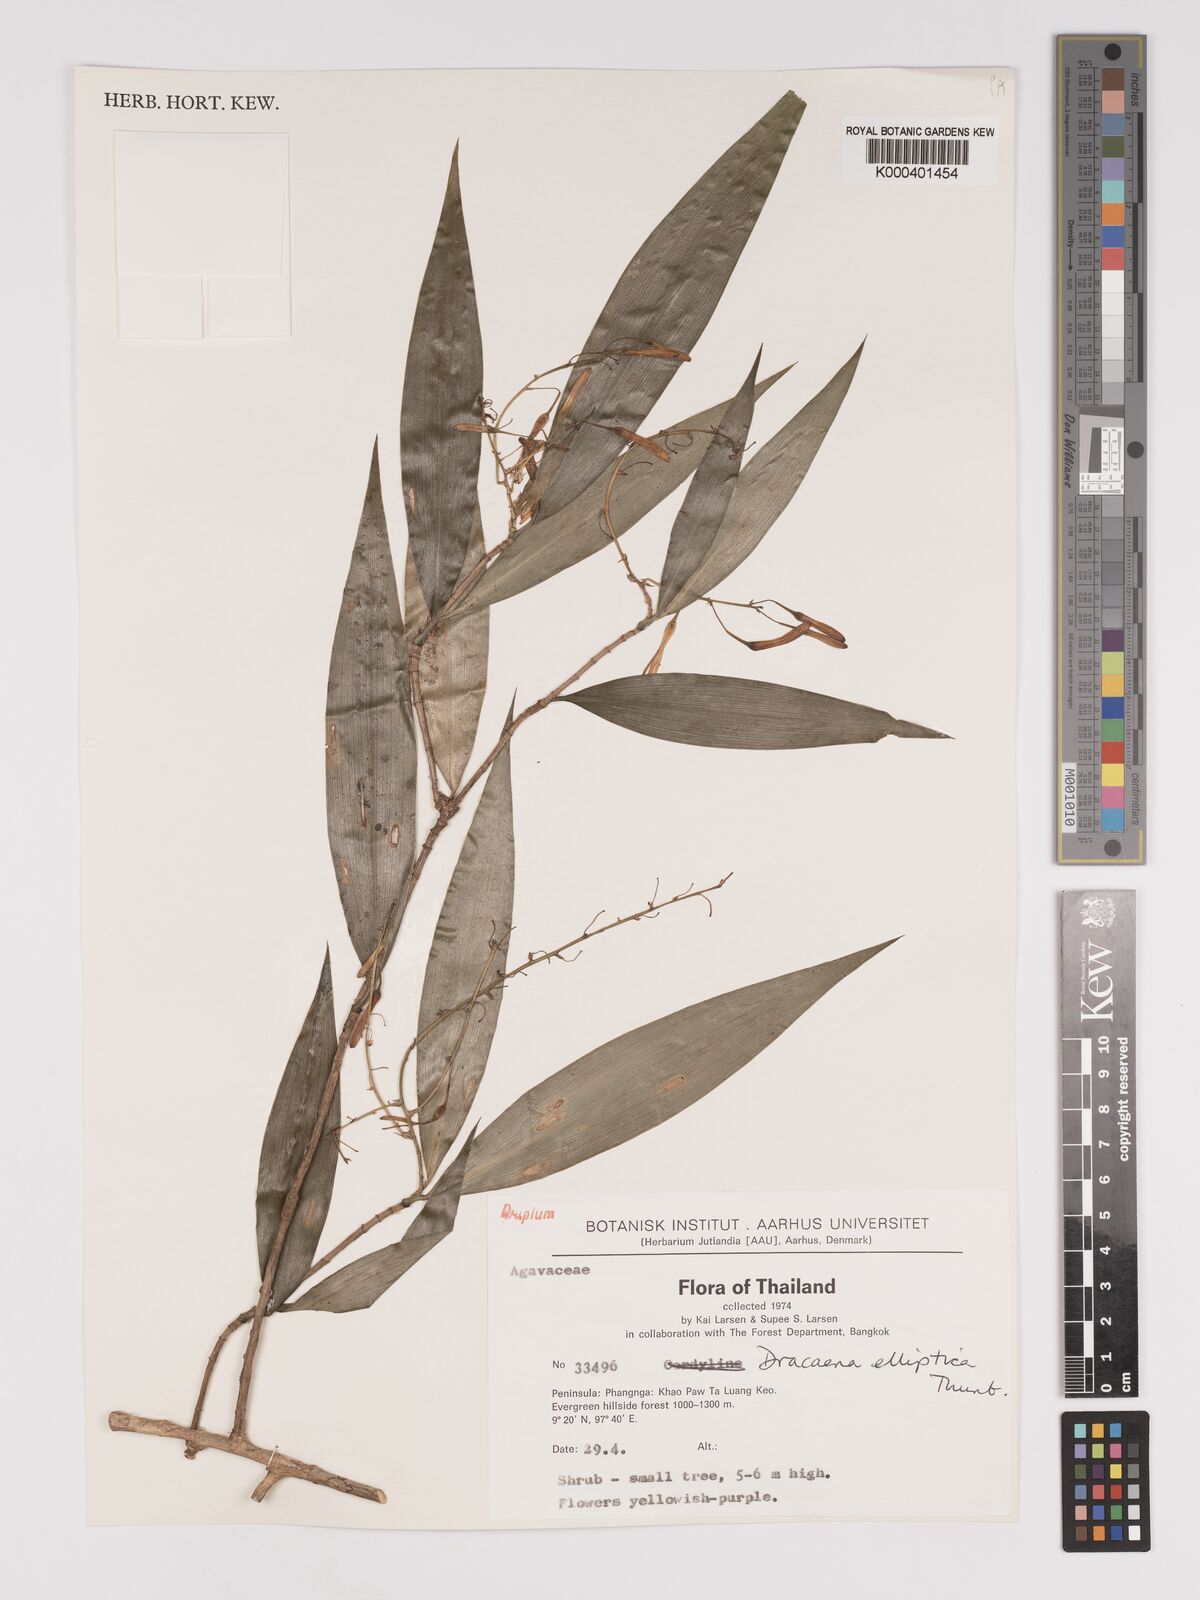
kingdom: Plantae
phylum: Tracheophyta
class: Liliopsida
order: Asparagales
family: Asparagaceae
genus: Dracaena
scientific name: Dracaena elliptica
